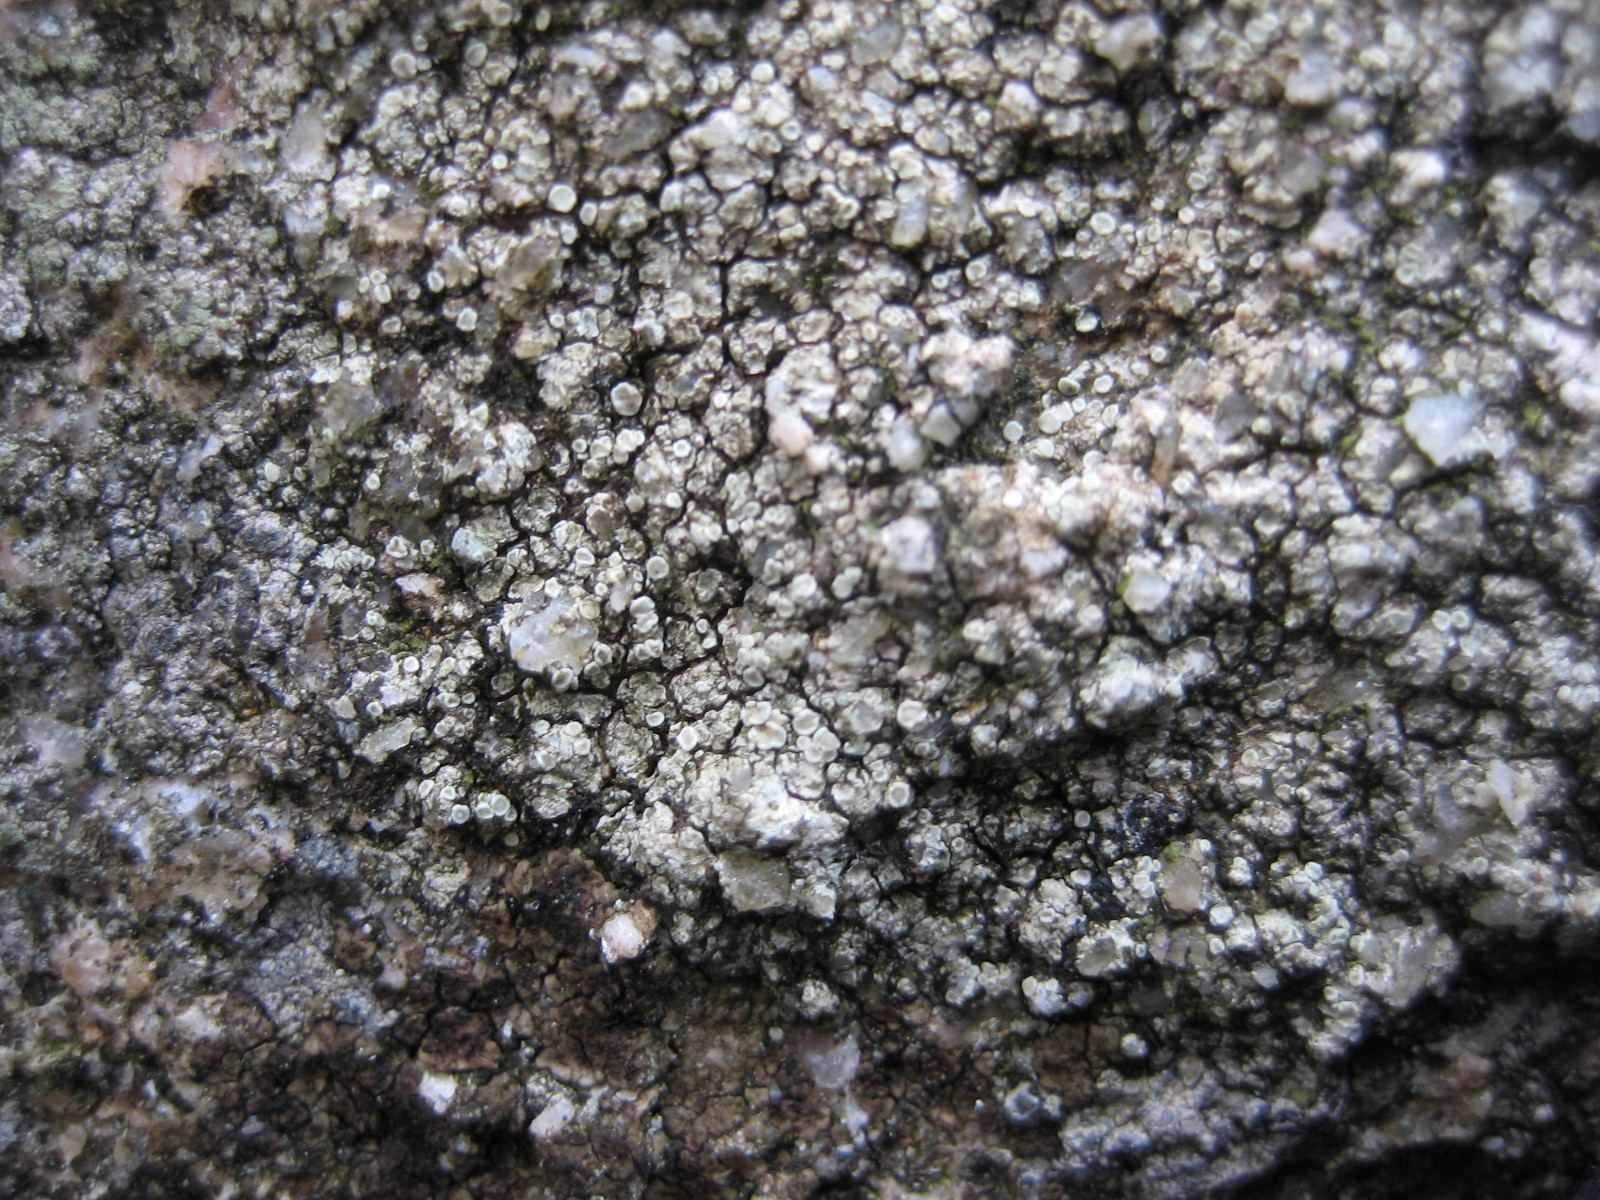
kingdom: Fungi
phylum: Ascomycota
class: Lecanoromycetes
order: Lecanorales
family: Lecanoraceae
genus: Lecanora
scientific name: Lecanora polytropa
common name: bleggrøn kantskivelav
